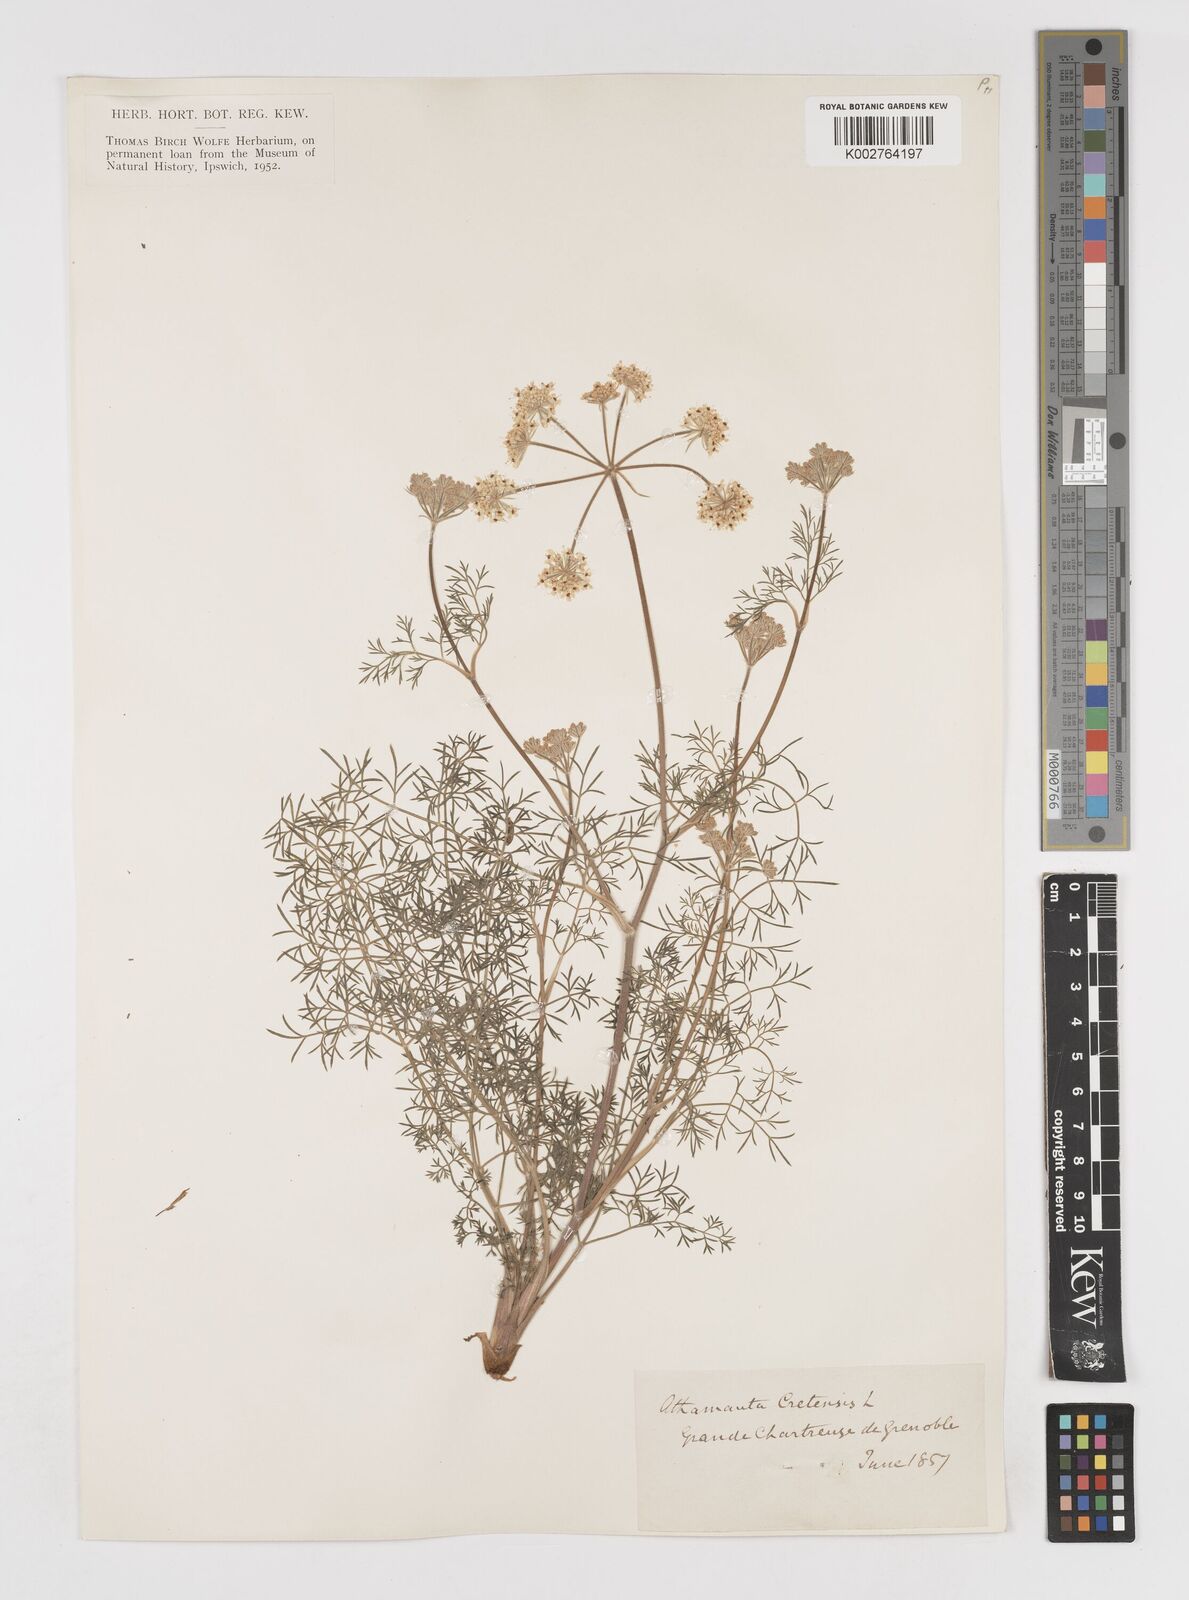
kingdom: Plantae
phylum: Tracheophyta
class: Magnoliopsida
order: Apiales
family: Apiaceae
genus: Athamanta
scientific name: Athamanta cretensis
